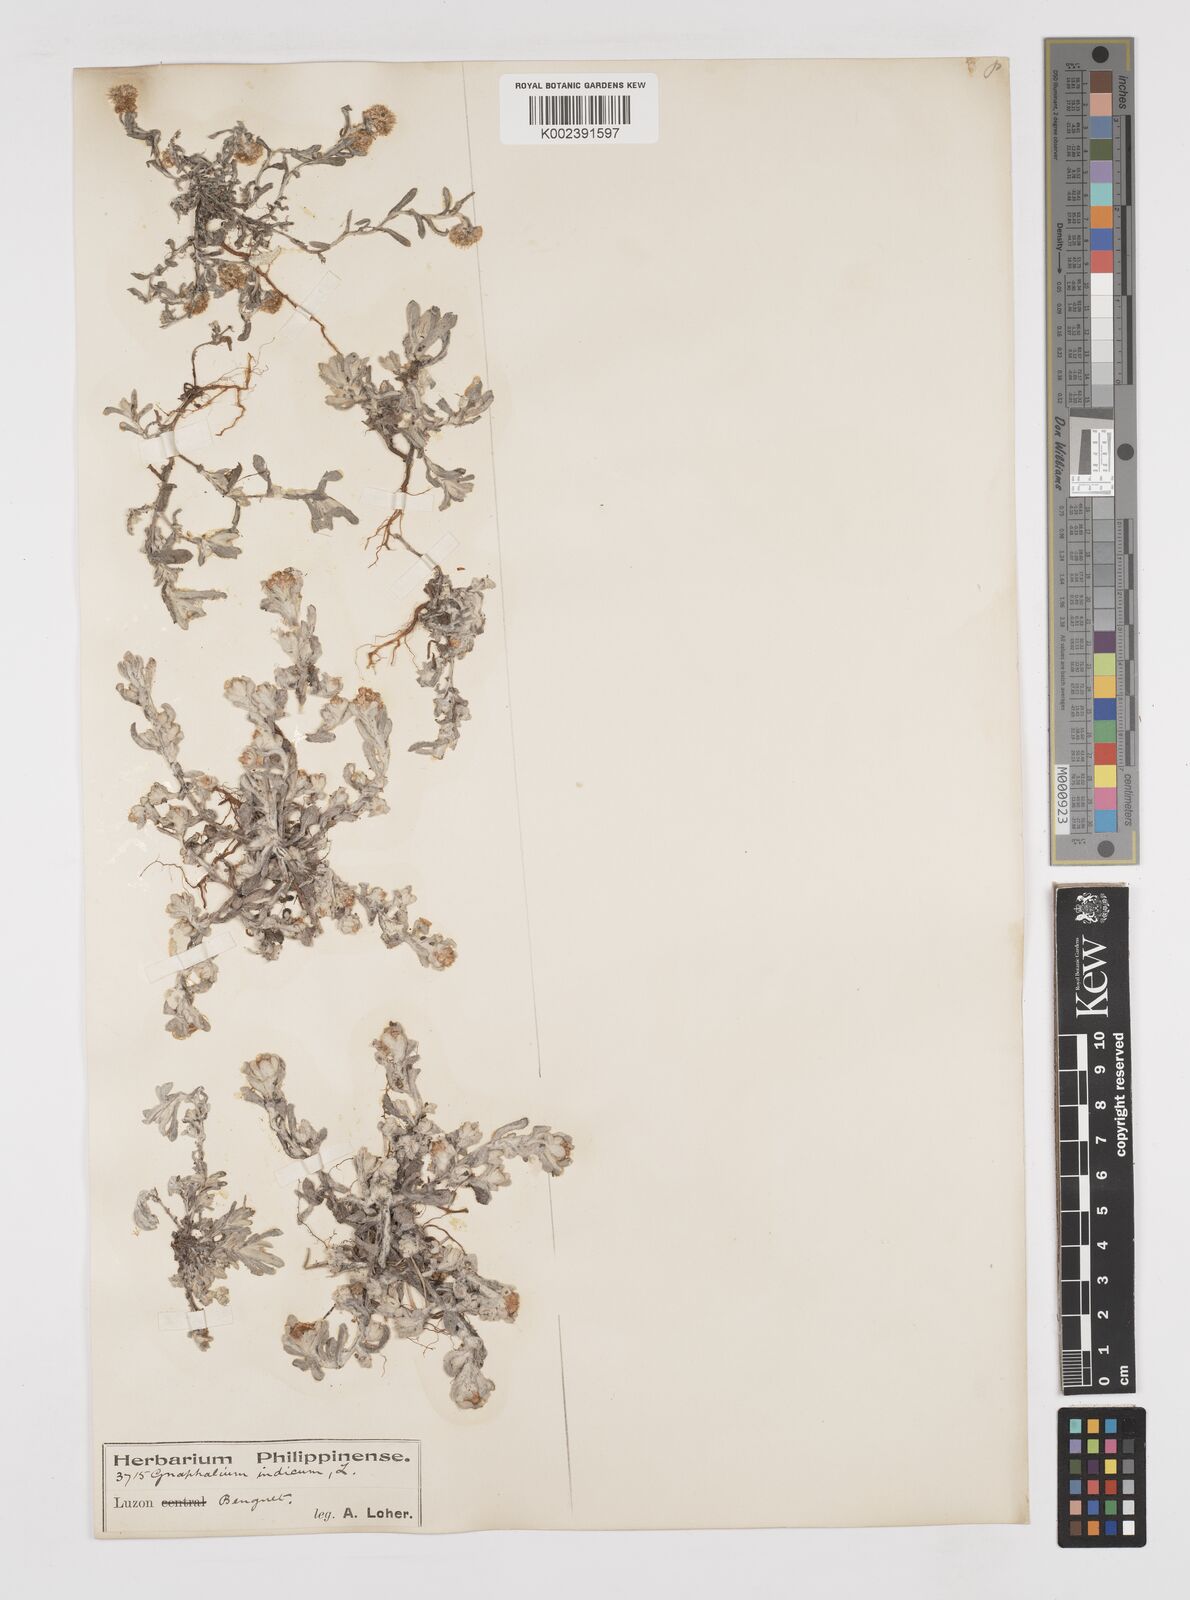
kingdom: Plantae
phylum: Tracheophyta
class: Magnoliopsida
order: Asterales
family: Asteraceae
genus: Helichrysum
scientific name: Helichrysum indicum
